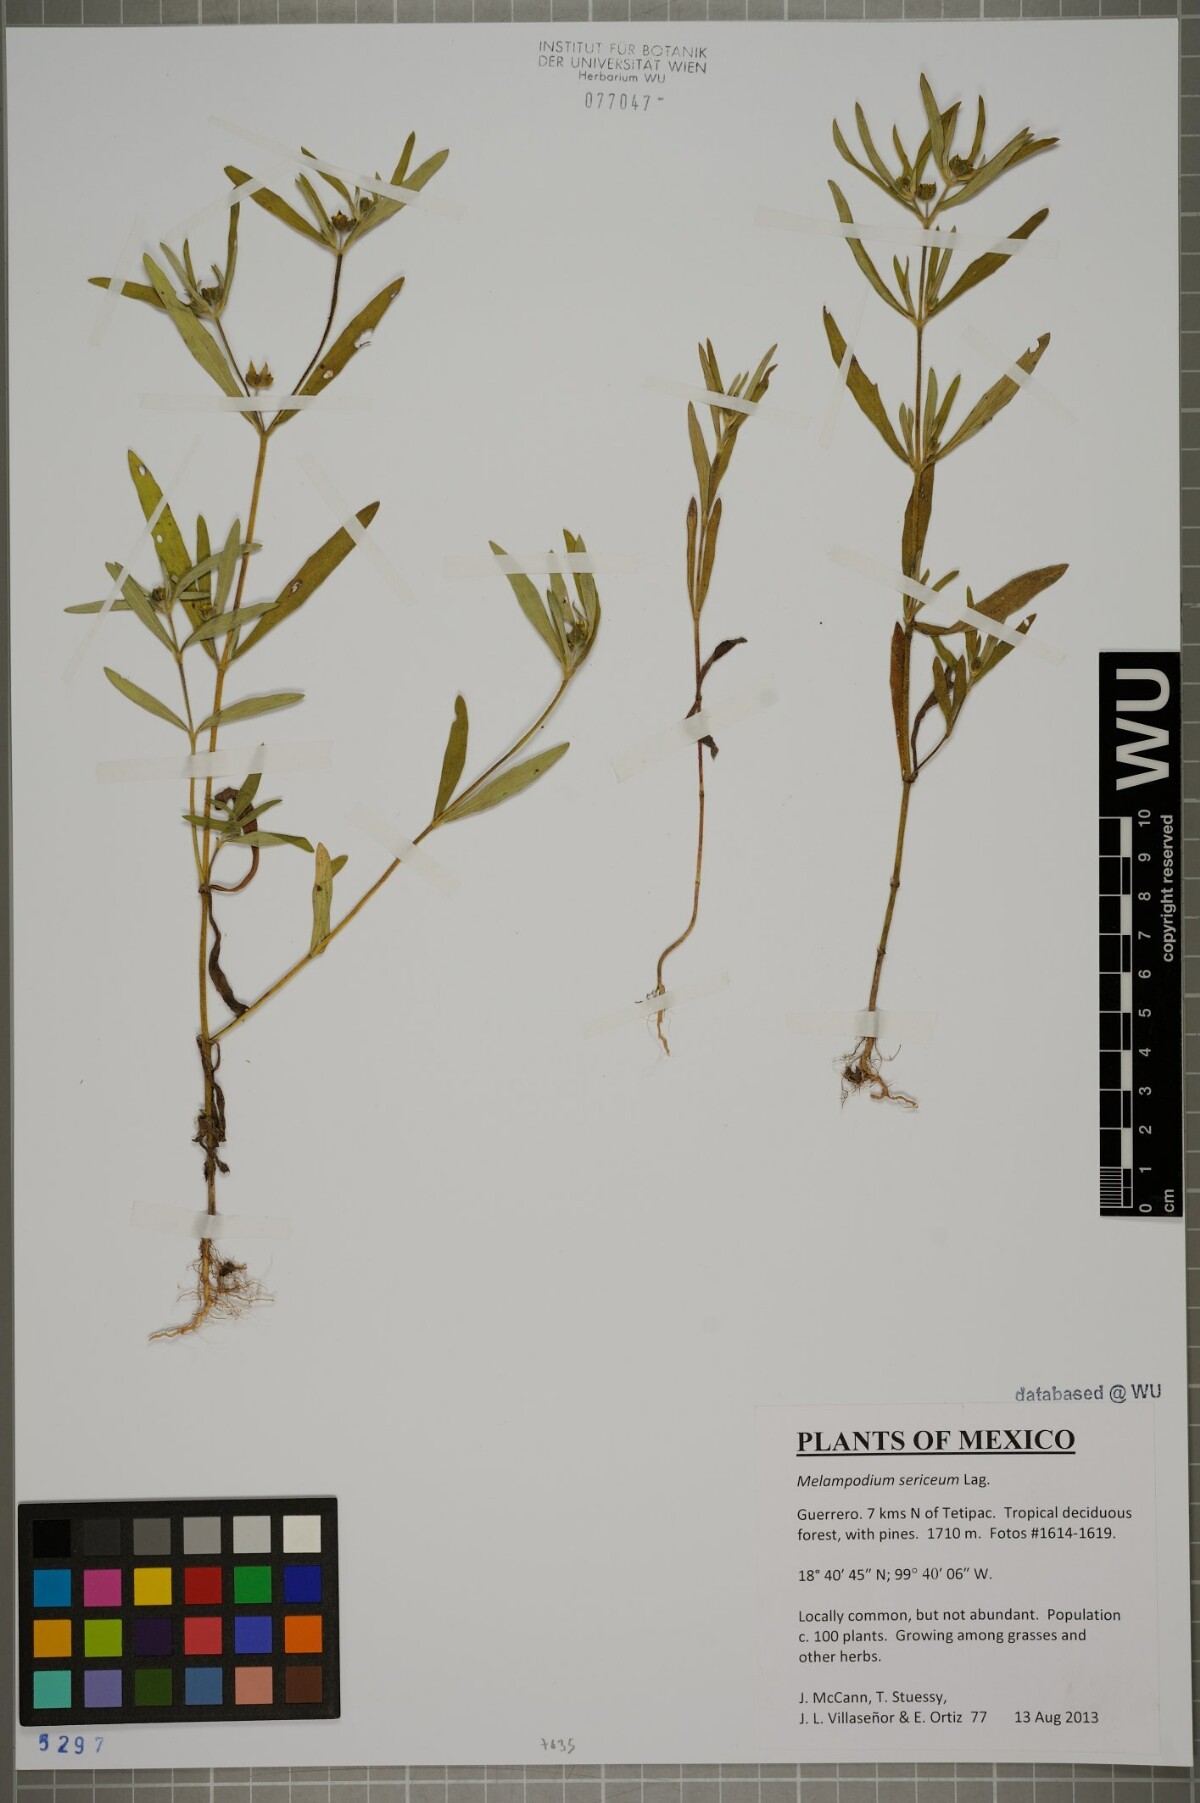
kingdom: Plantae
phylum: Tracheophyta
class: Magnoliopsida
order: Asterales
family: Asteraceae
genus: Melampodium
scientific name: Melampodium sericeum
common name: Rough blackfoot
